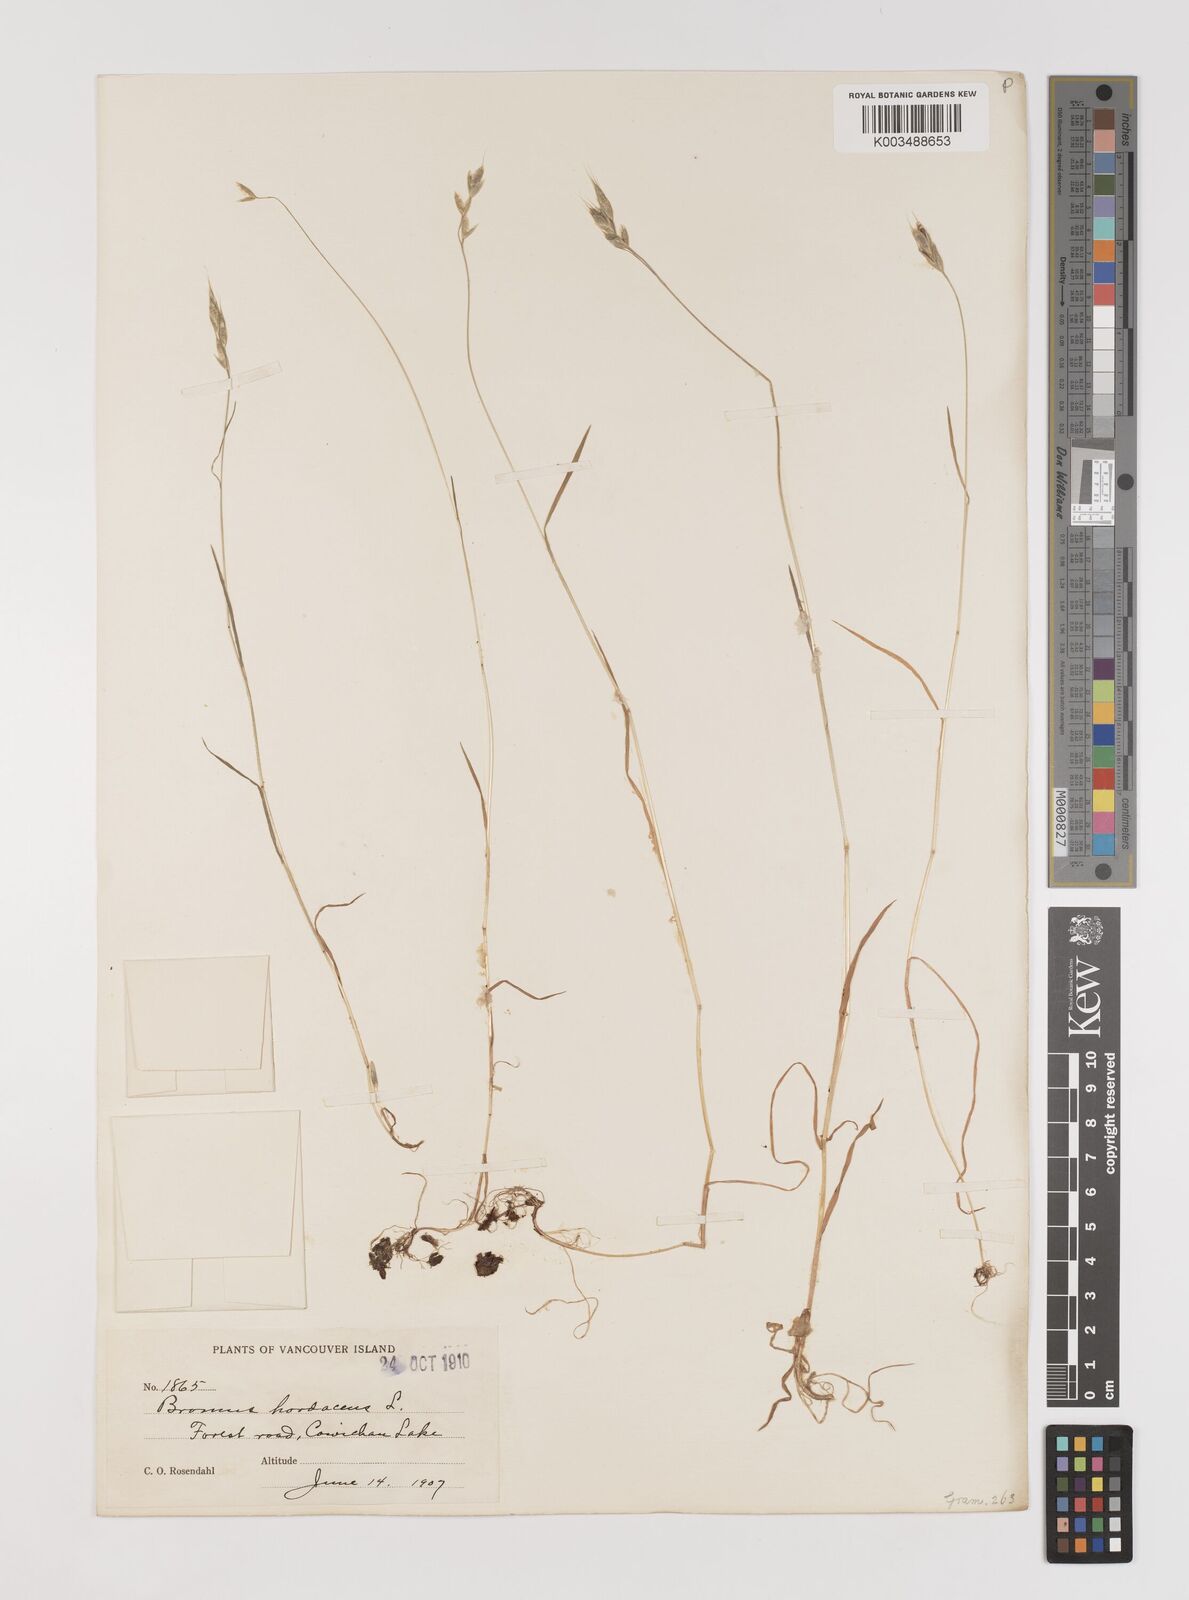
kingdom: Plantae
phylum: Tracheophyta
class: Liliopsida
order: Poales
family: Poaceae
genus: Bromus
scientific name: Bromus hordeaceus
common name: Soft brome
